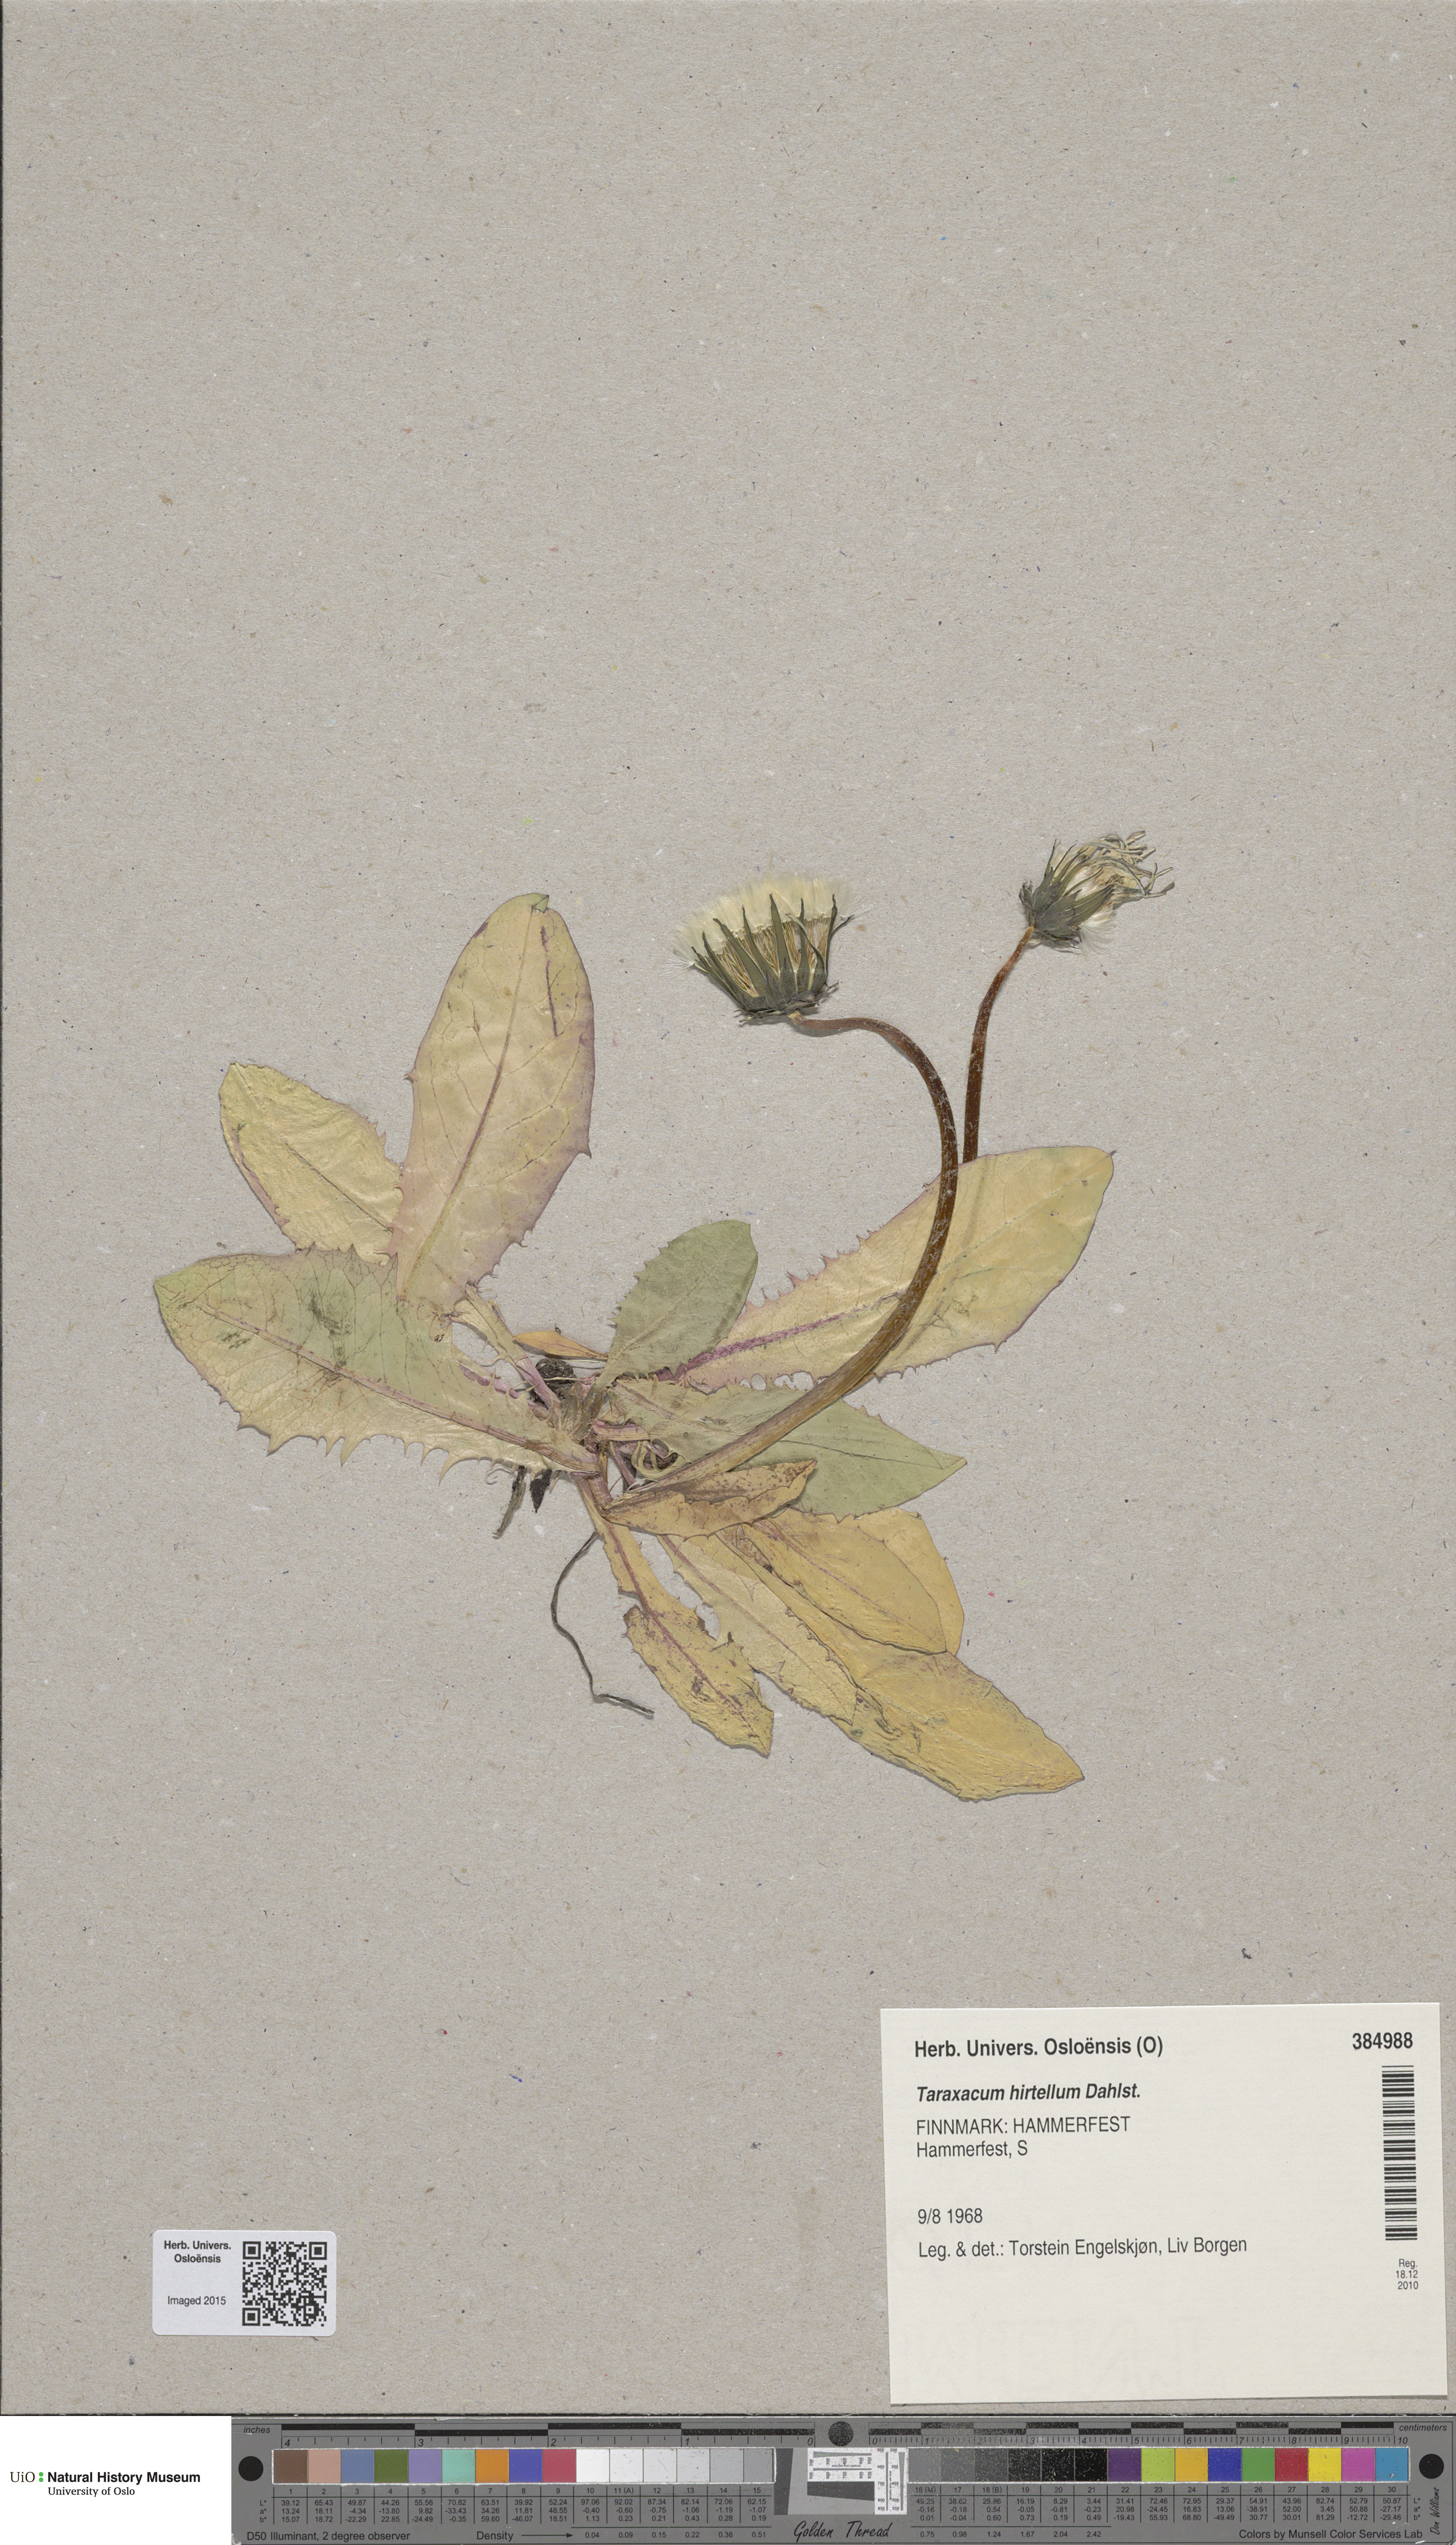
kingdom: Plantae
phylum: Tracheophyta
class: Magnoliopsida
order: Asterales
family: Asteraceae
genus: Taraxacum
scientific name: Taraxacum hirtellum
